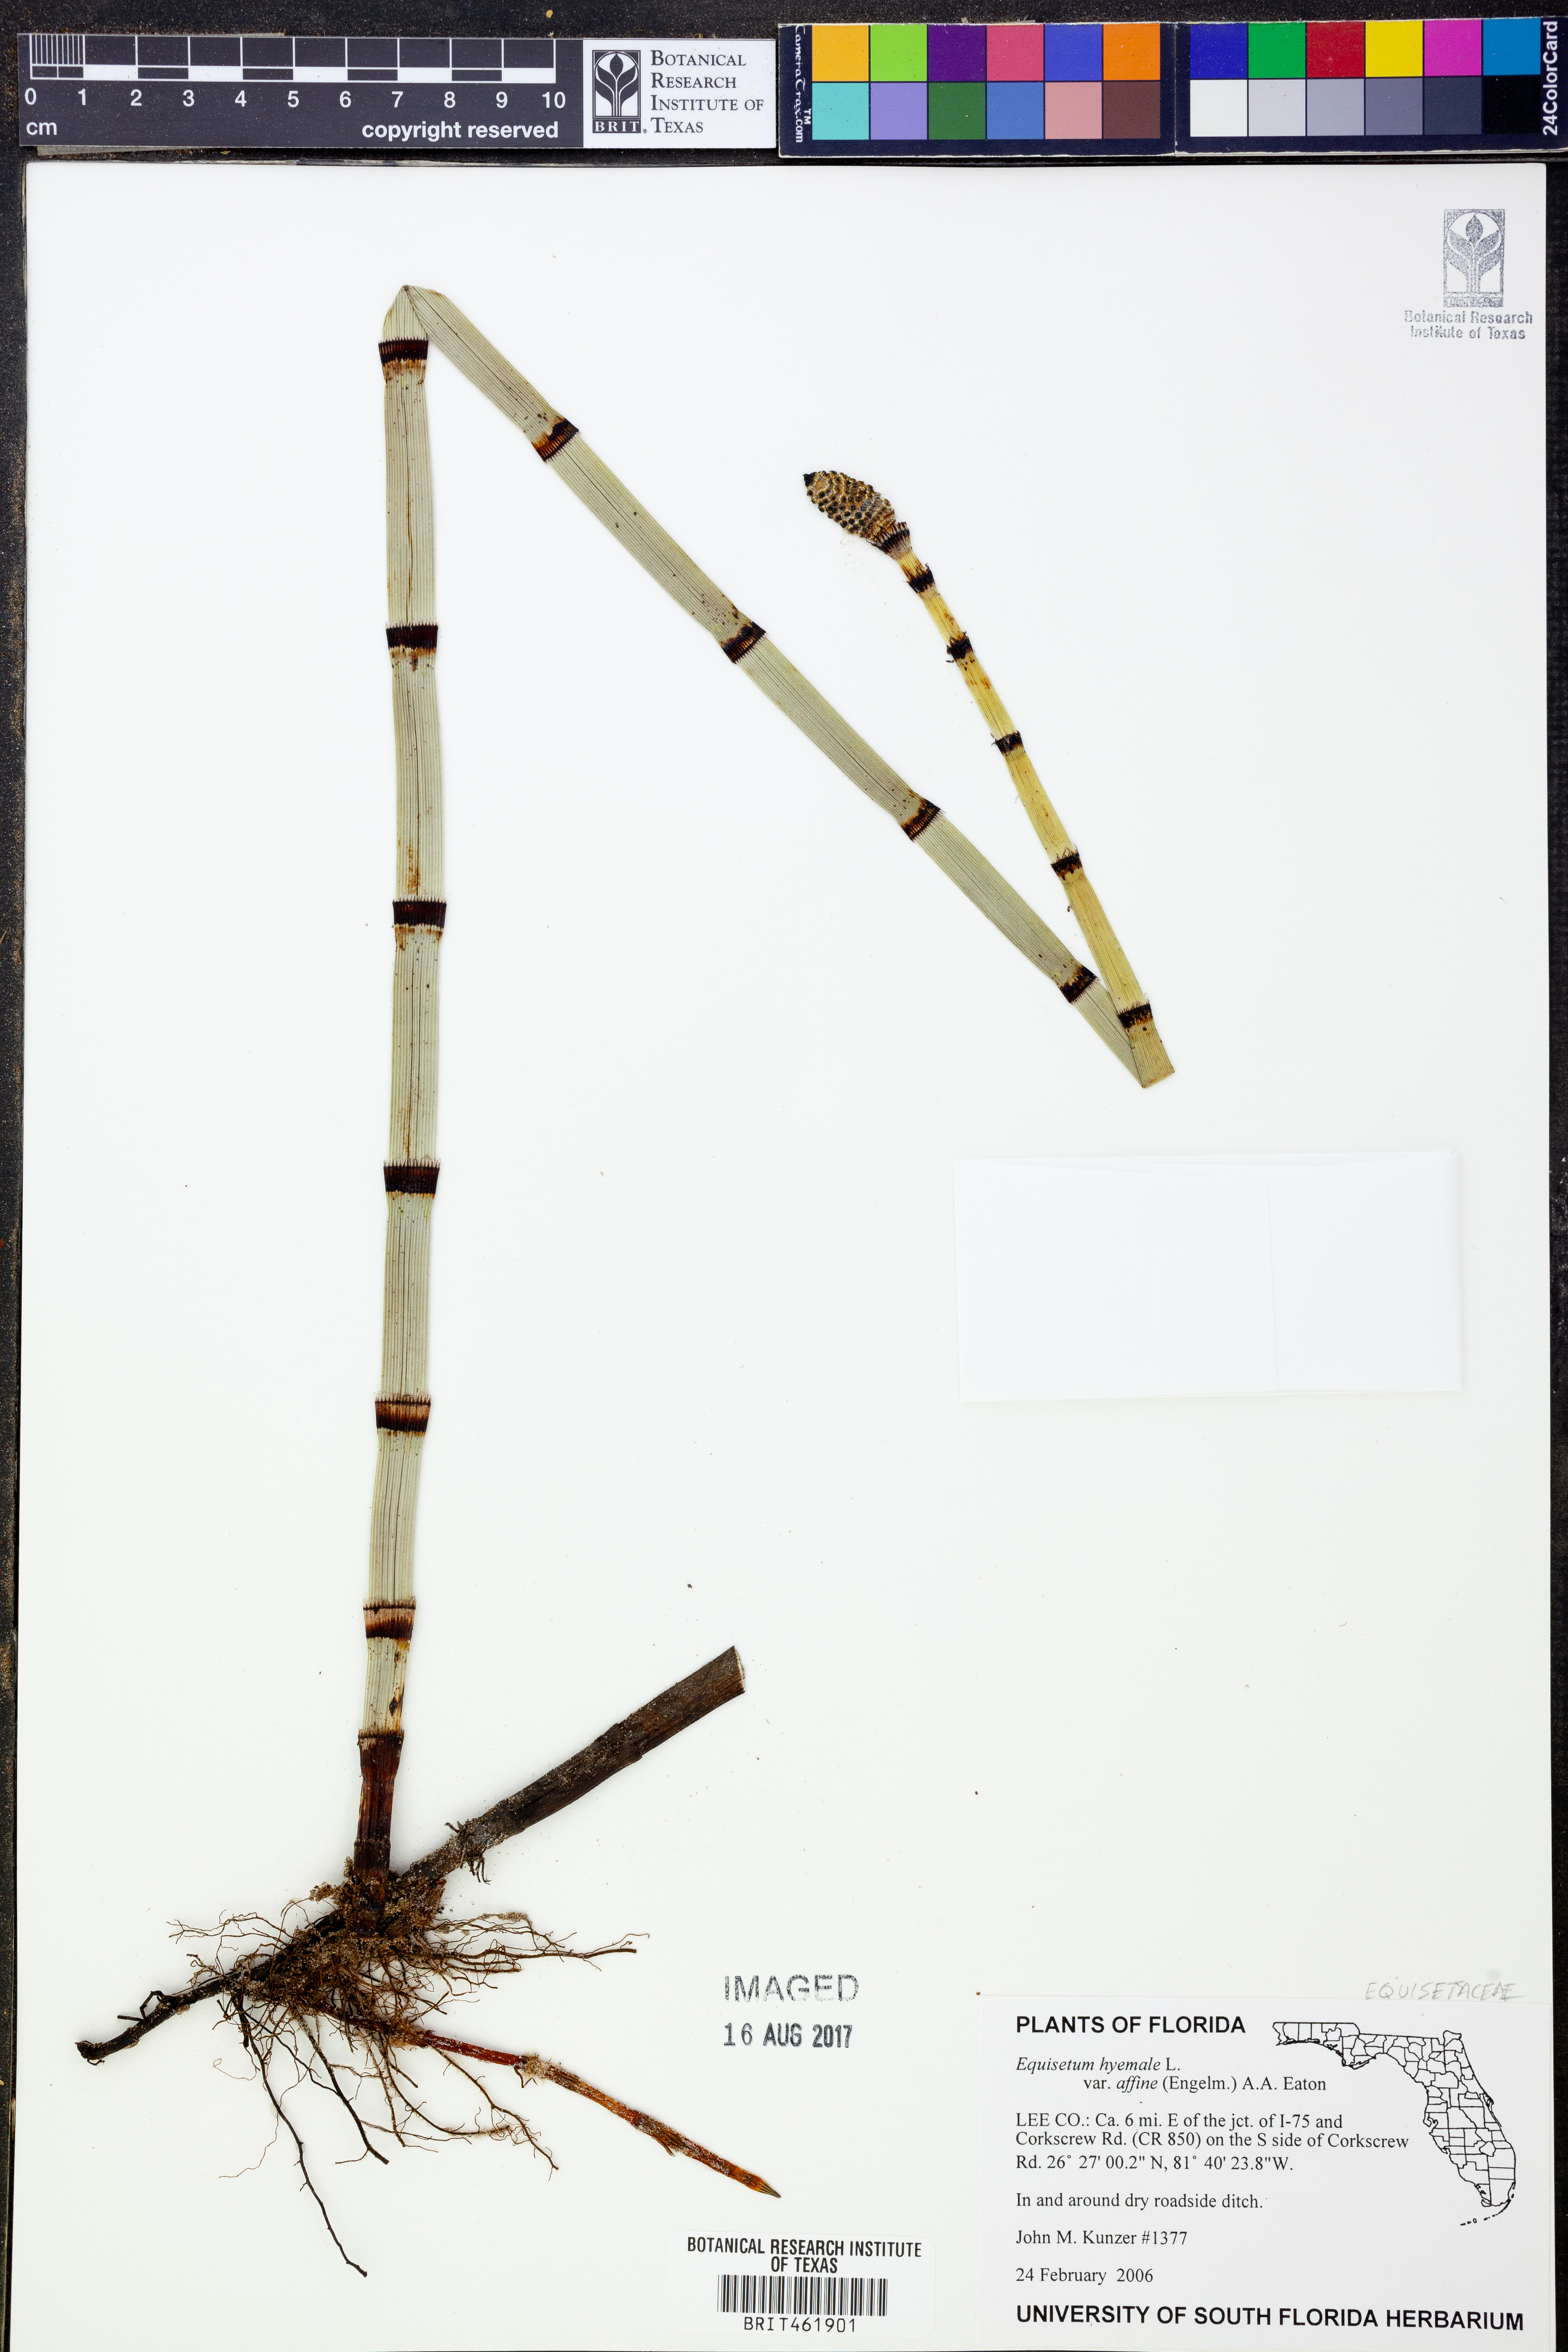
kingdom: Plantae
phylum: Tracheophyta
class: Polypodiopsida
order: Equisetales
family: Equisetaceae
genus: Equisetum
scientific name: Equisetum praealtum
